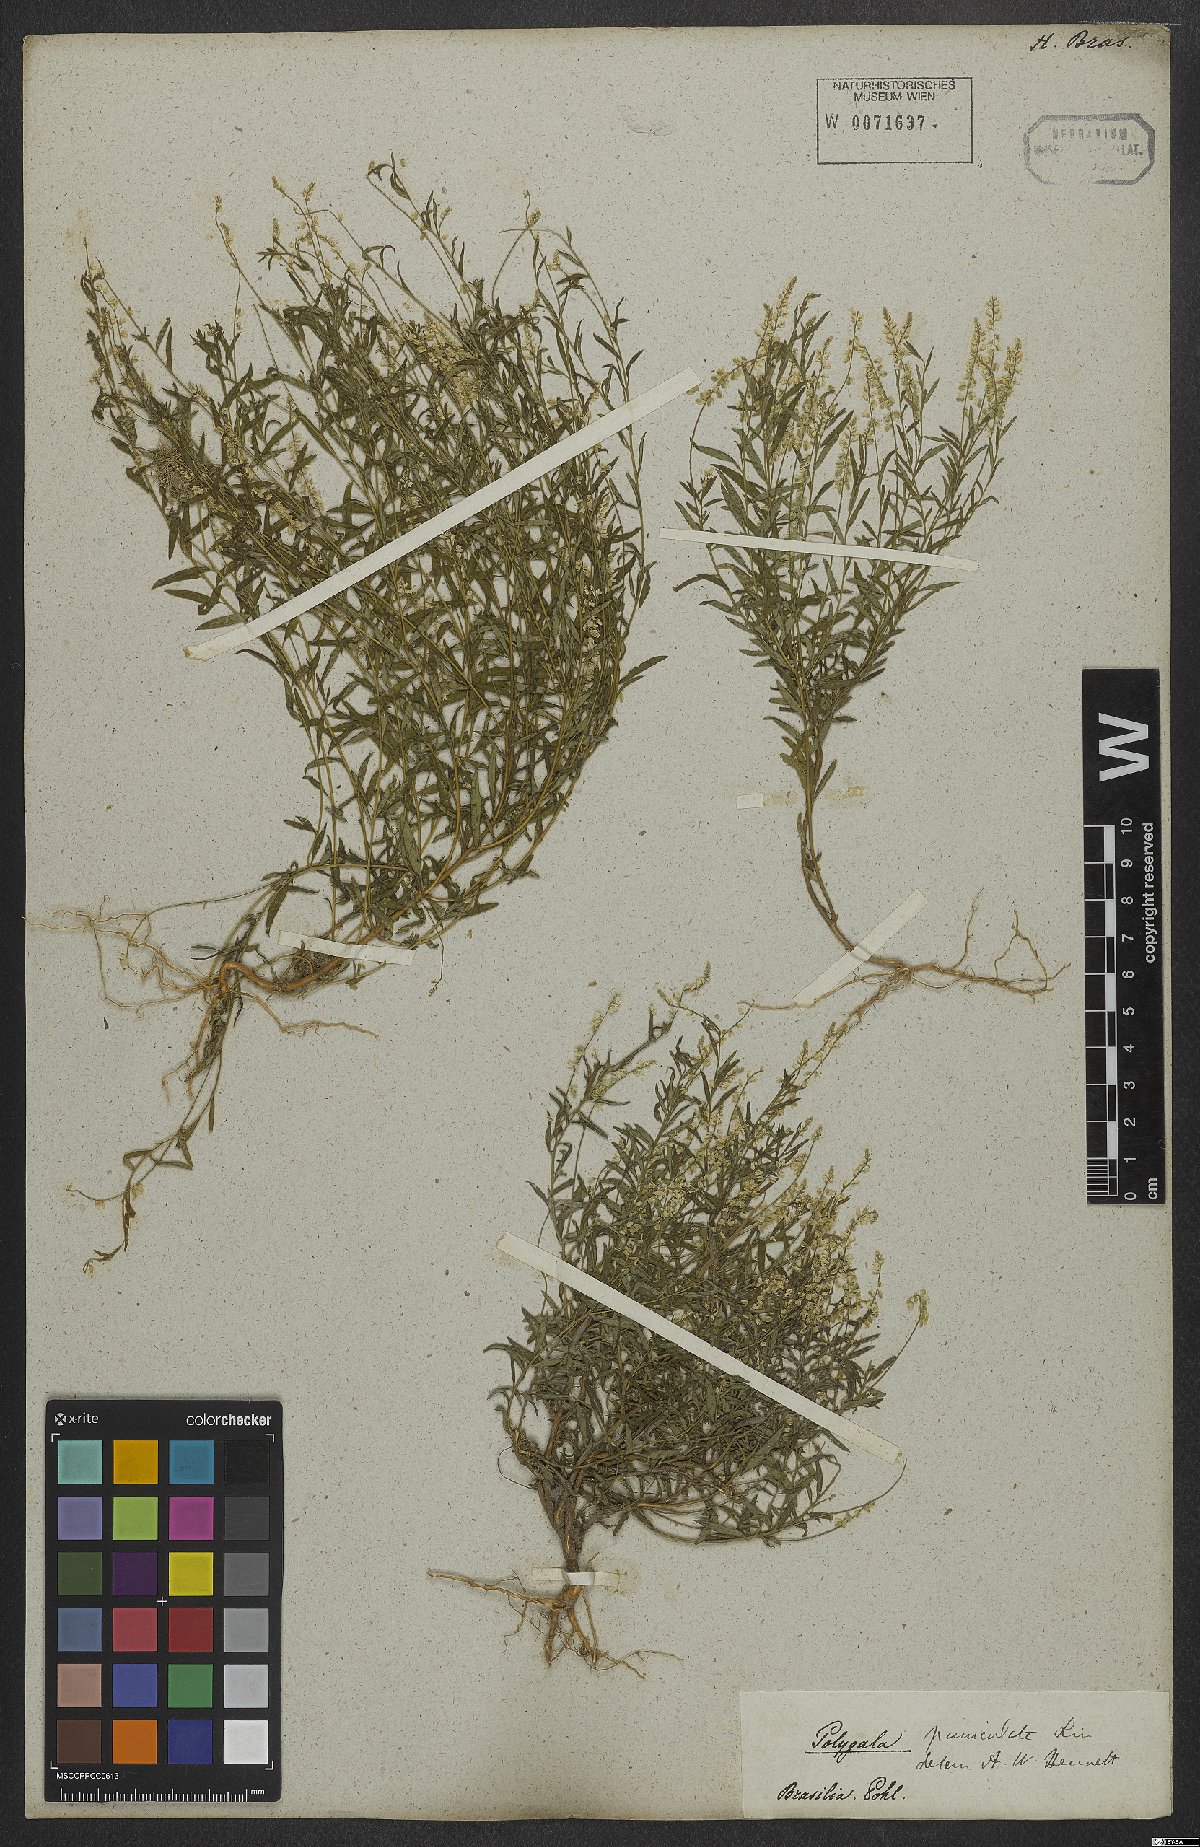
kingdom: Plantae
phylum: Tracheophyta
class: Magnoliopsida
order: Fabales
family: Polygalaceae
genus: Polygala
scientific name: Polygala exilis
